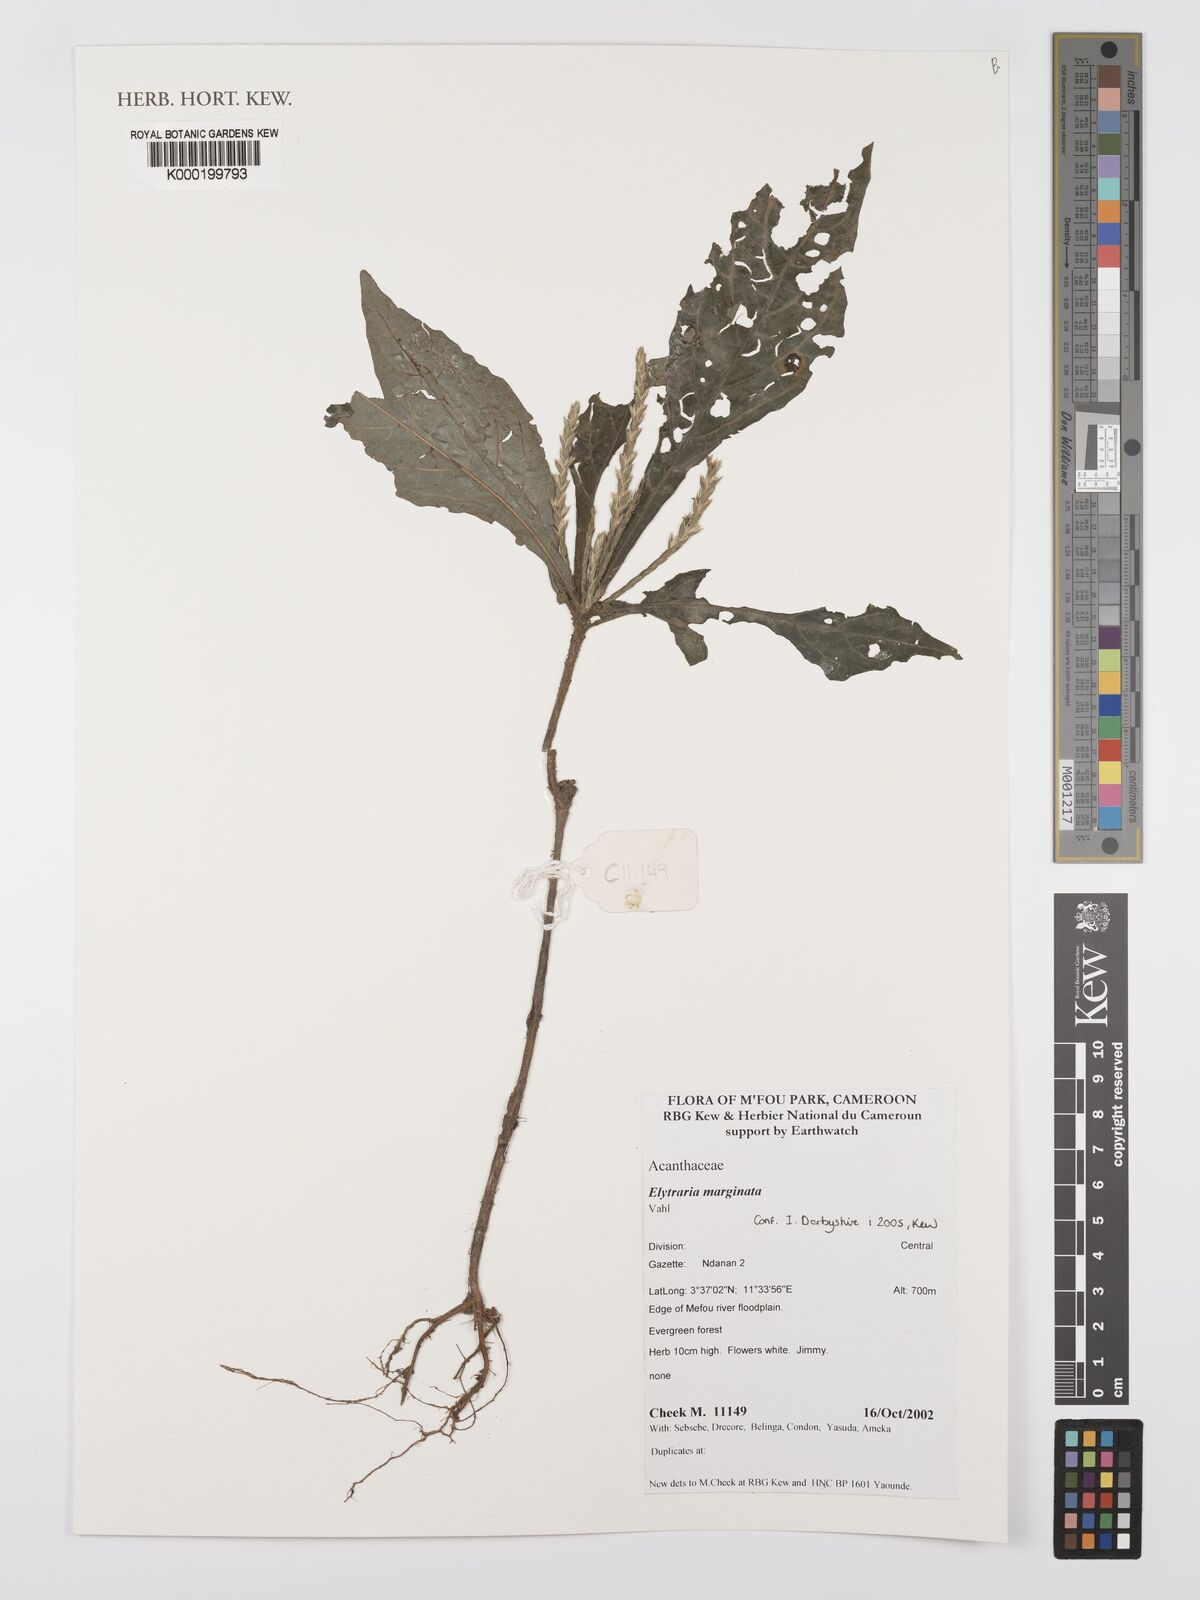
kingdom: Plantae
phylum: Tracheophyta
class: Magnoliopsida
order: Lamiales
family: Acanthaceae
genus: Elytraria
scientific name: Elytraria marginata
